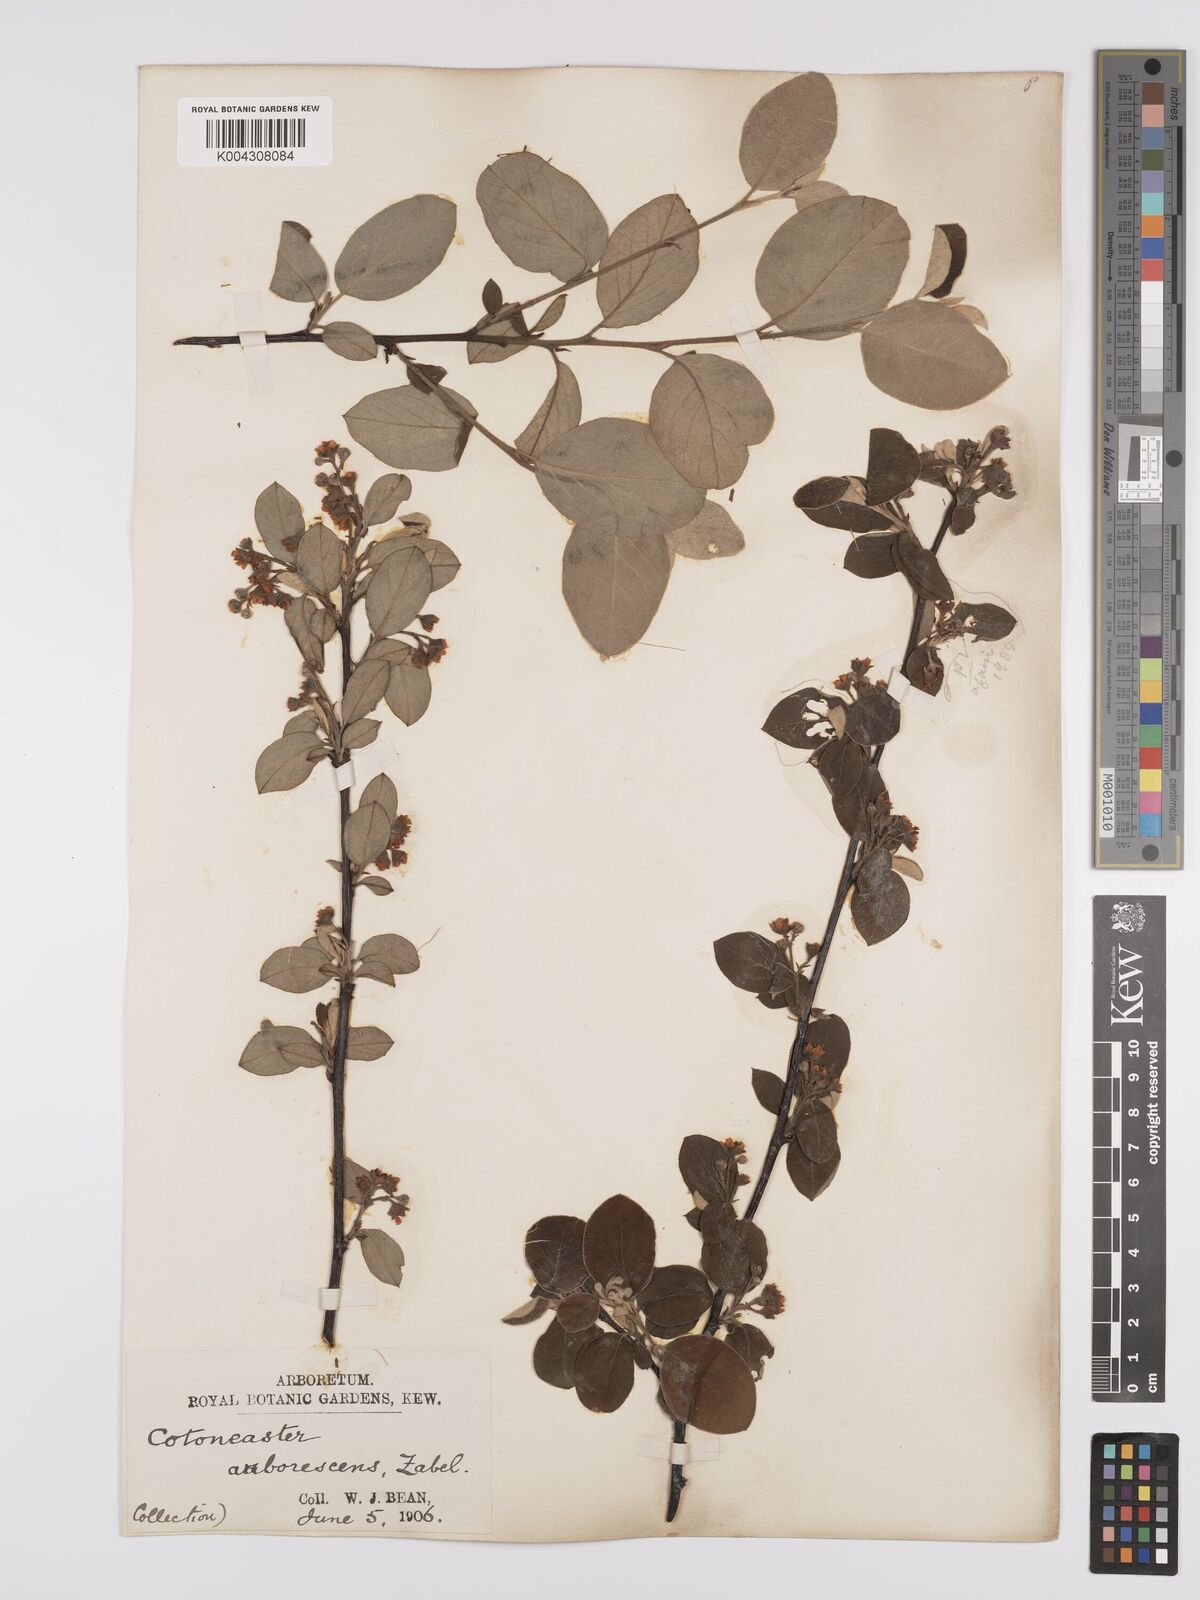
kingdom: Plantae
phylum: Tracheophyta
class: Magnoliopsida
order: Rosales
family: Rosaceae
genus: Cotoneaster
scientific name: Cotoneaster lindleyi
